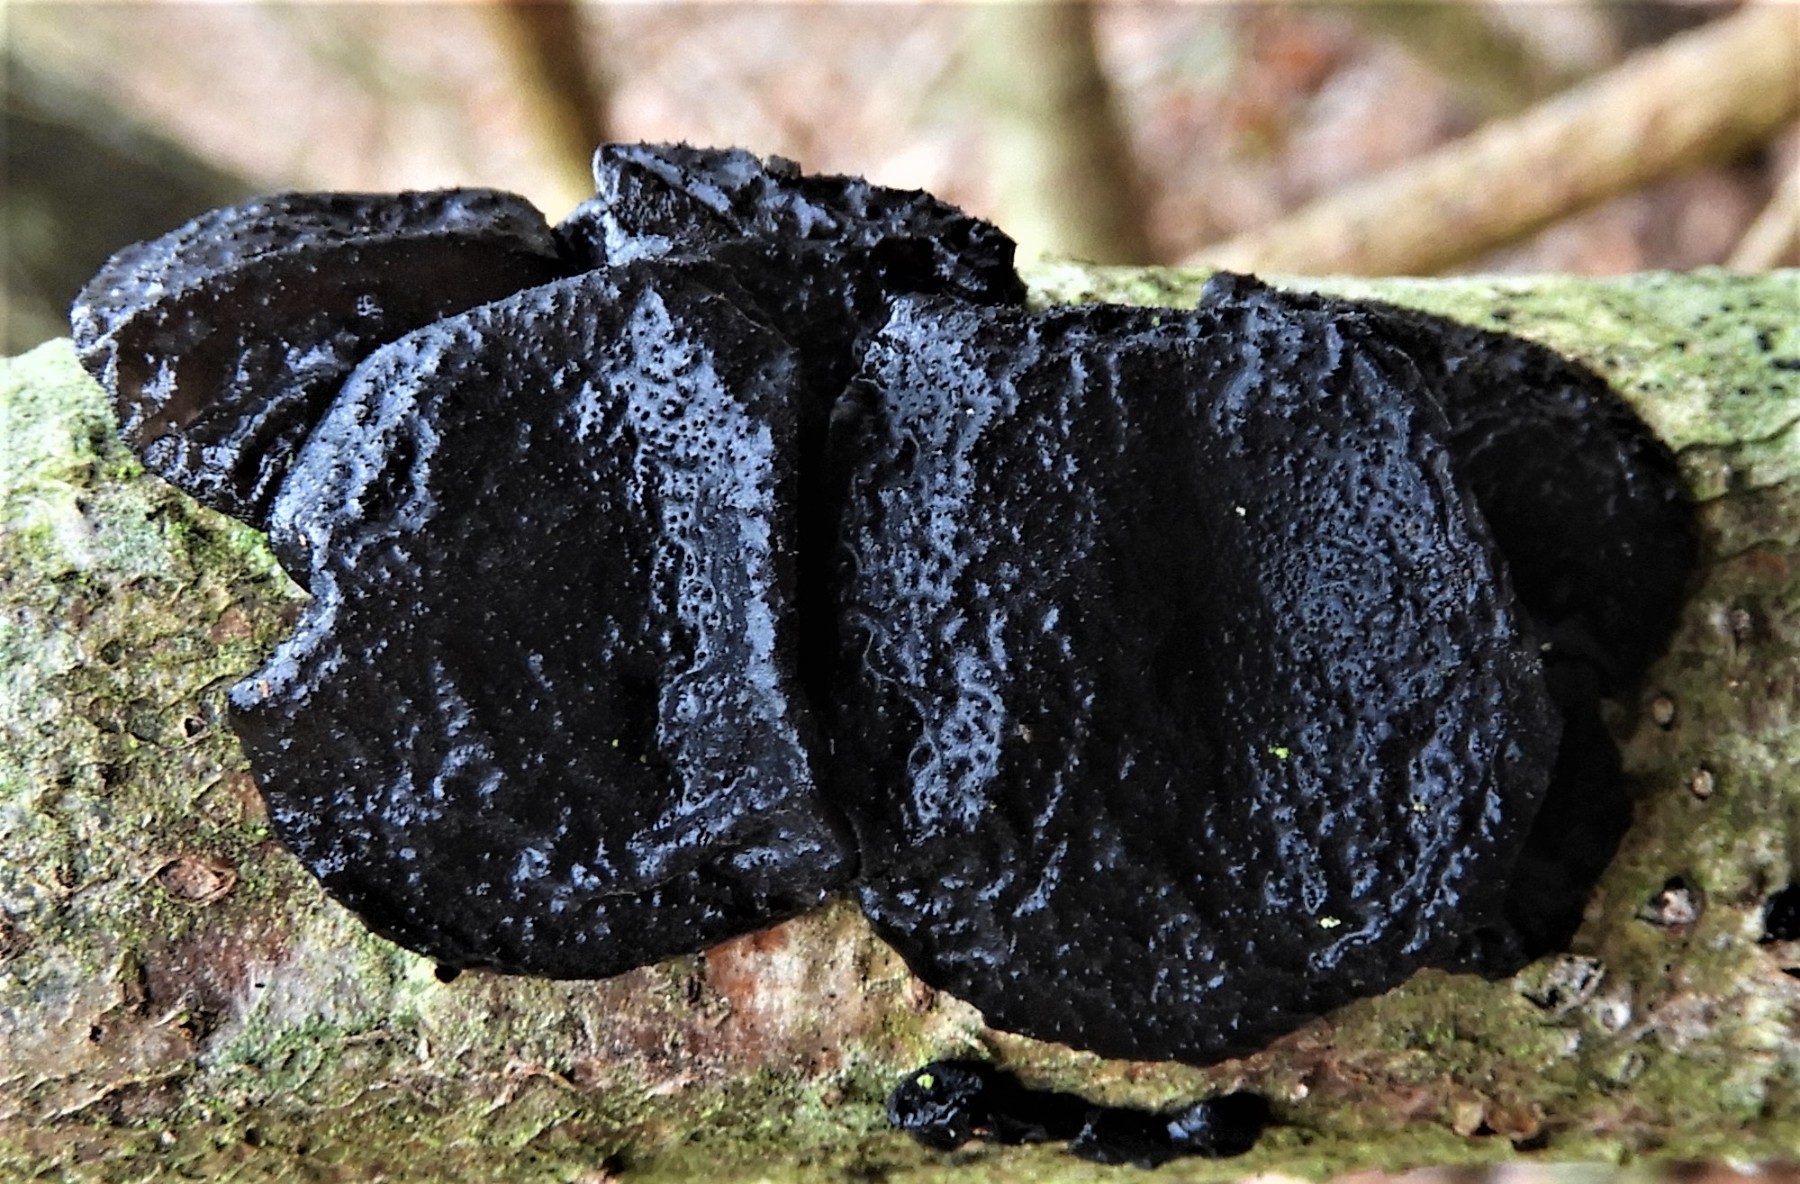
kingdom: Fungi
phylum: Basidiomycota
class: Agaricomycetes
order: Auriculariales
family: Auriculariaceae
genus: Exidia
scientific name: Exidia glandulosa
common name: ege-bævretop
